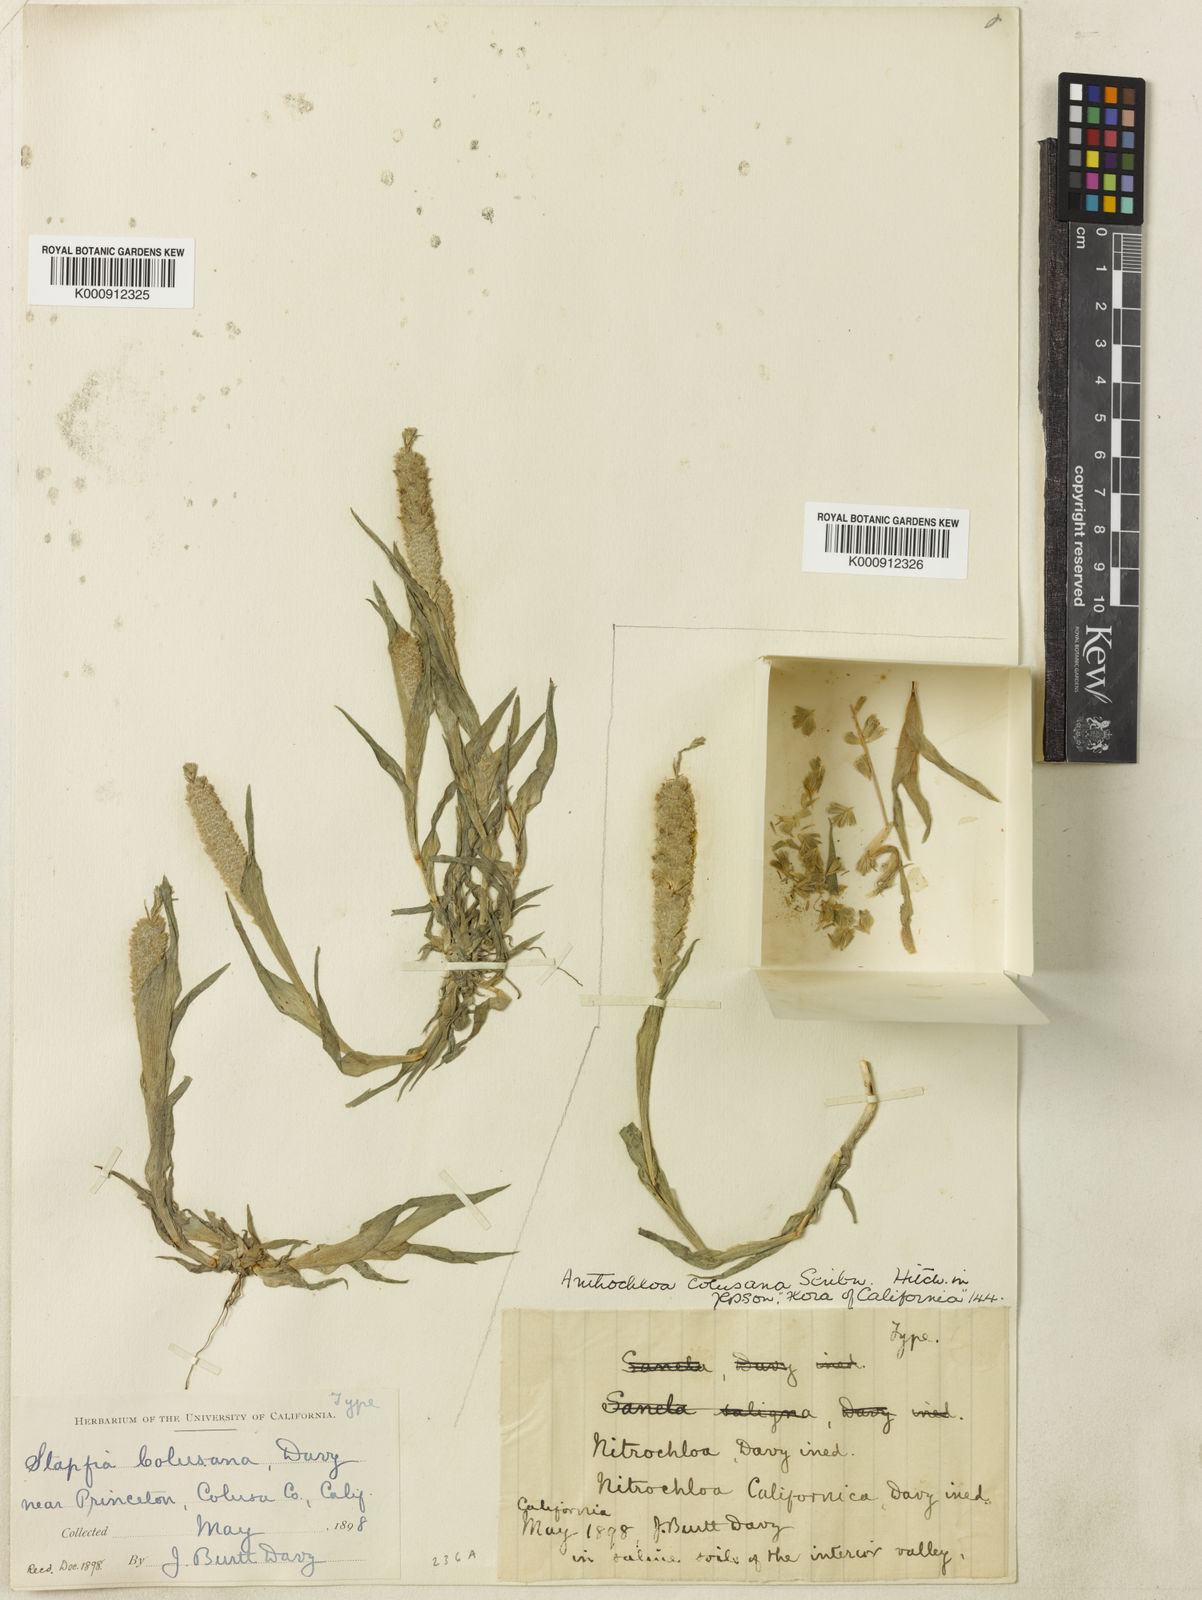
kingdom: Plantae
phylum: Tracheophyta
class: Liliopsida
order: Poales
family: Poaceae
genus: Neostapfia
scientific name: Neostapfia colusana
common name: Colusa grass
